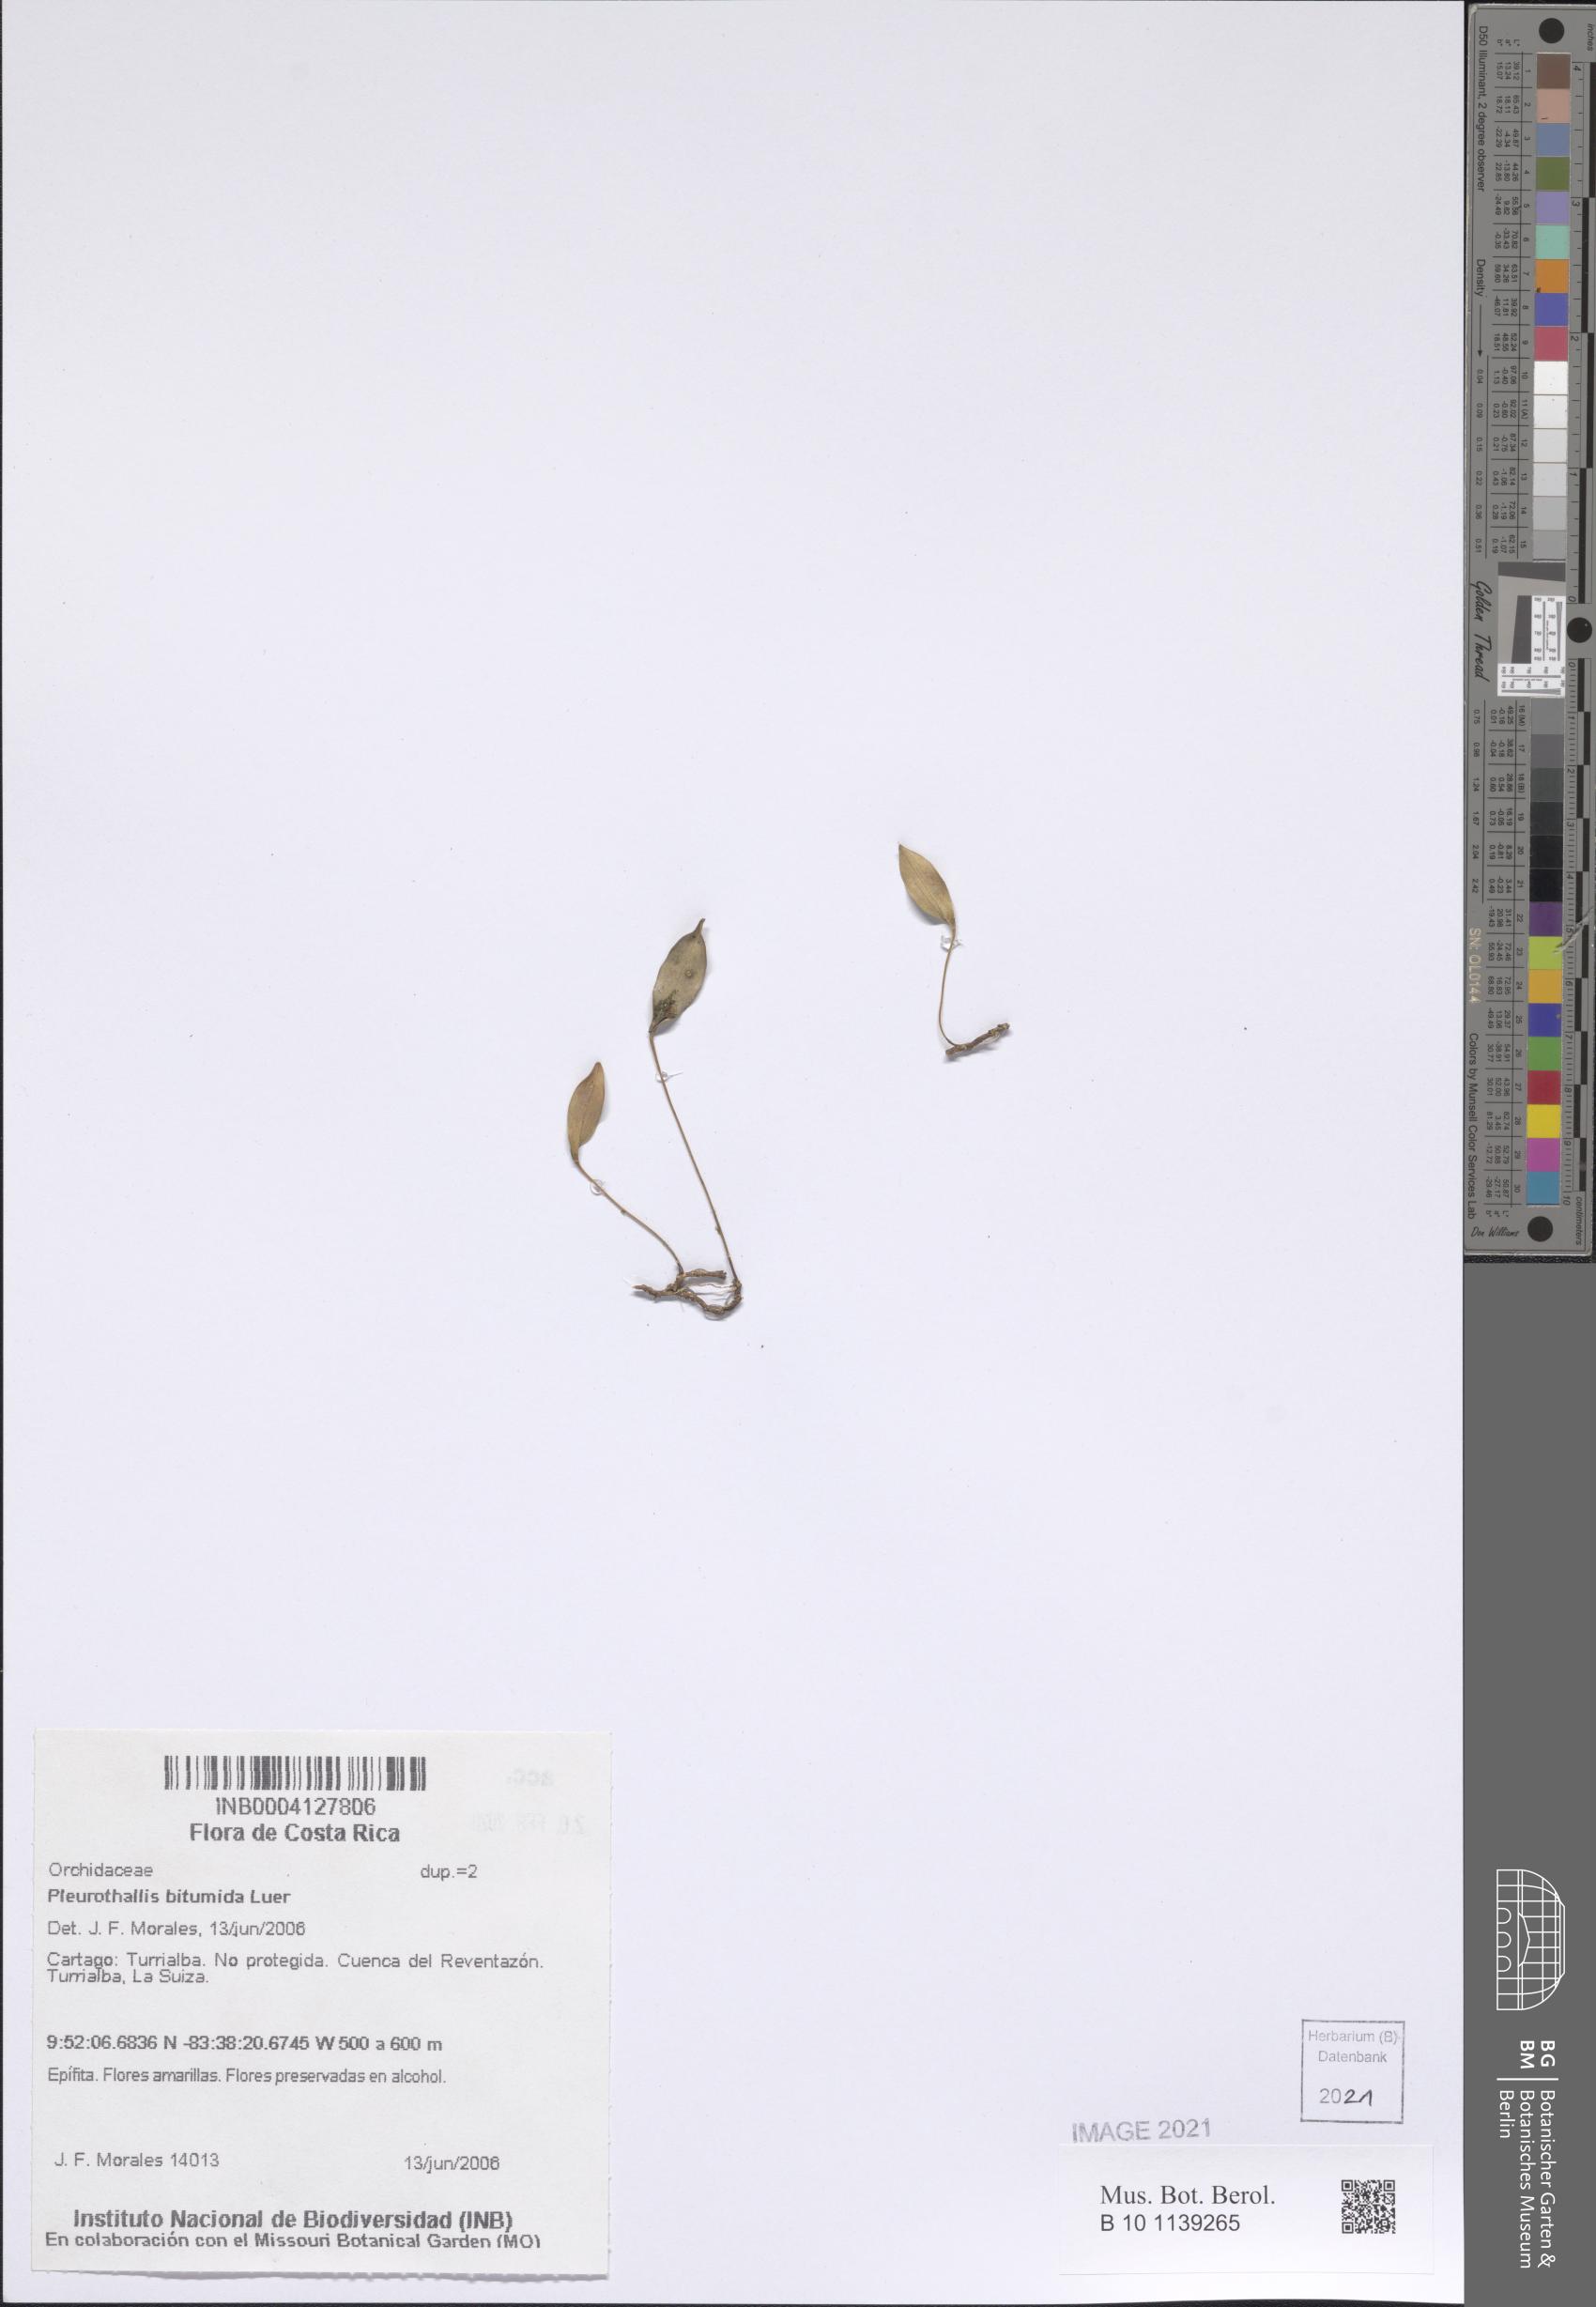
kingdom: Plantae
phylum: Tracheophyta
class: Liliopsida
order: Asparagales
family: Orchidaceae
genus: Pleurothallis
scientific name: Pleurothallis bitumida
